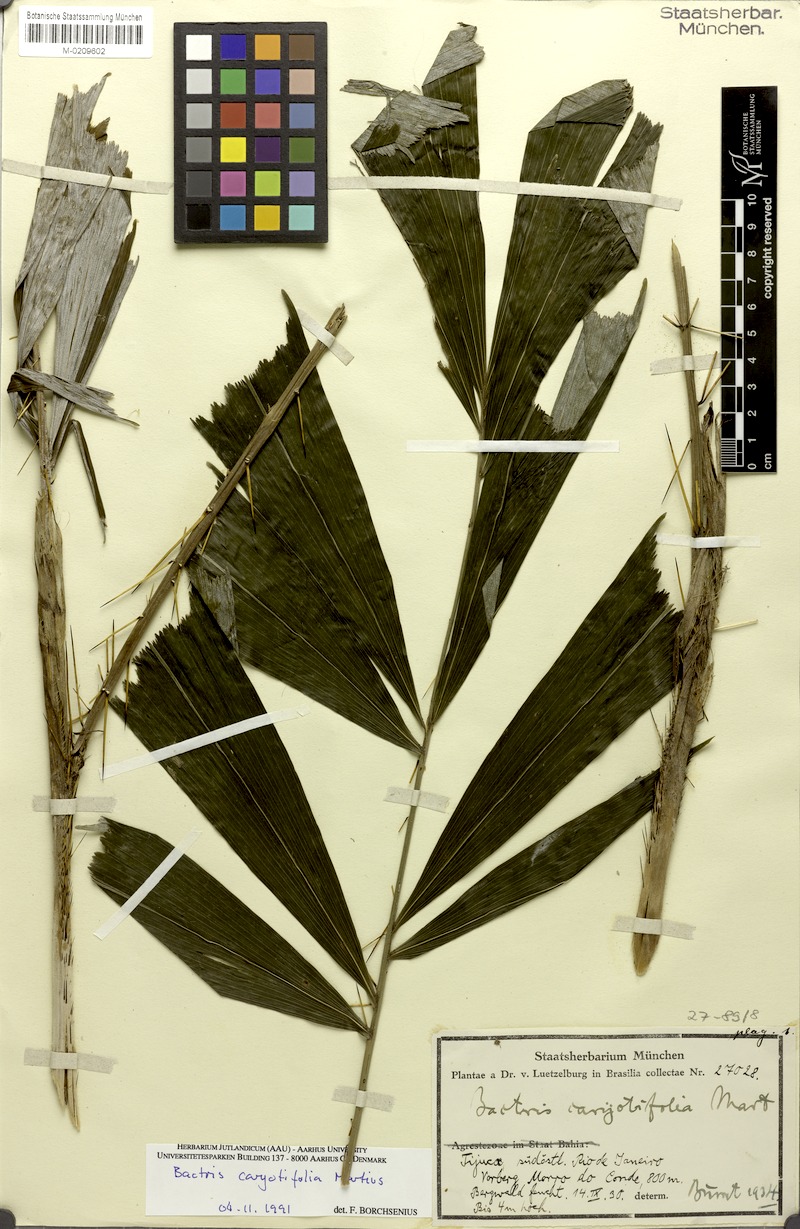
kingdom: Plantae
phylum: Tracheophyta
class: Liliopsida
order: Arecales
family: Arecaceae
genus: Bactris
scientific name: Bactris caryotifolia
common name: Caryota-leaf peach palm
